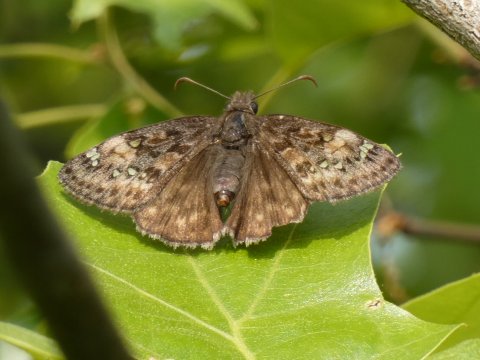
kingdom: Animalia
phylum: Arthropoda
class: Insecta
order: Lepidoptera
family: Hesperiidae
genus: Gesta
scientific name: Gesta
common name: Juvenal's Duskywing
